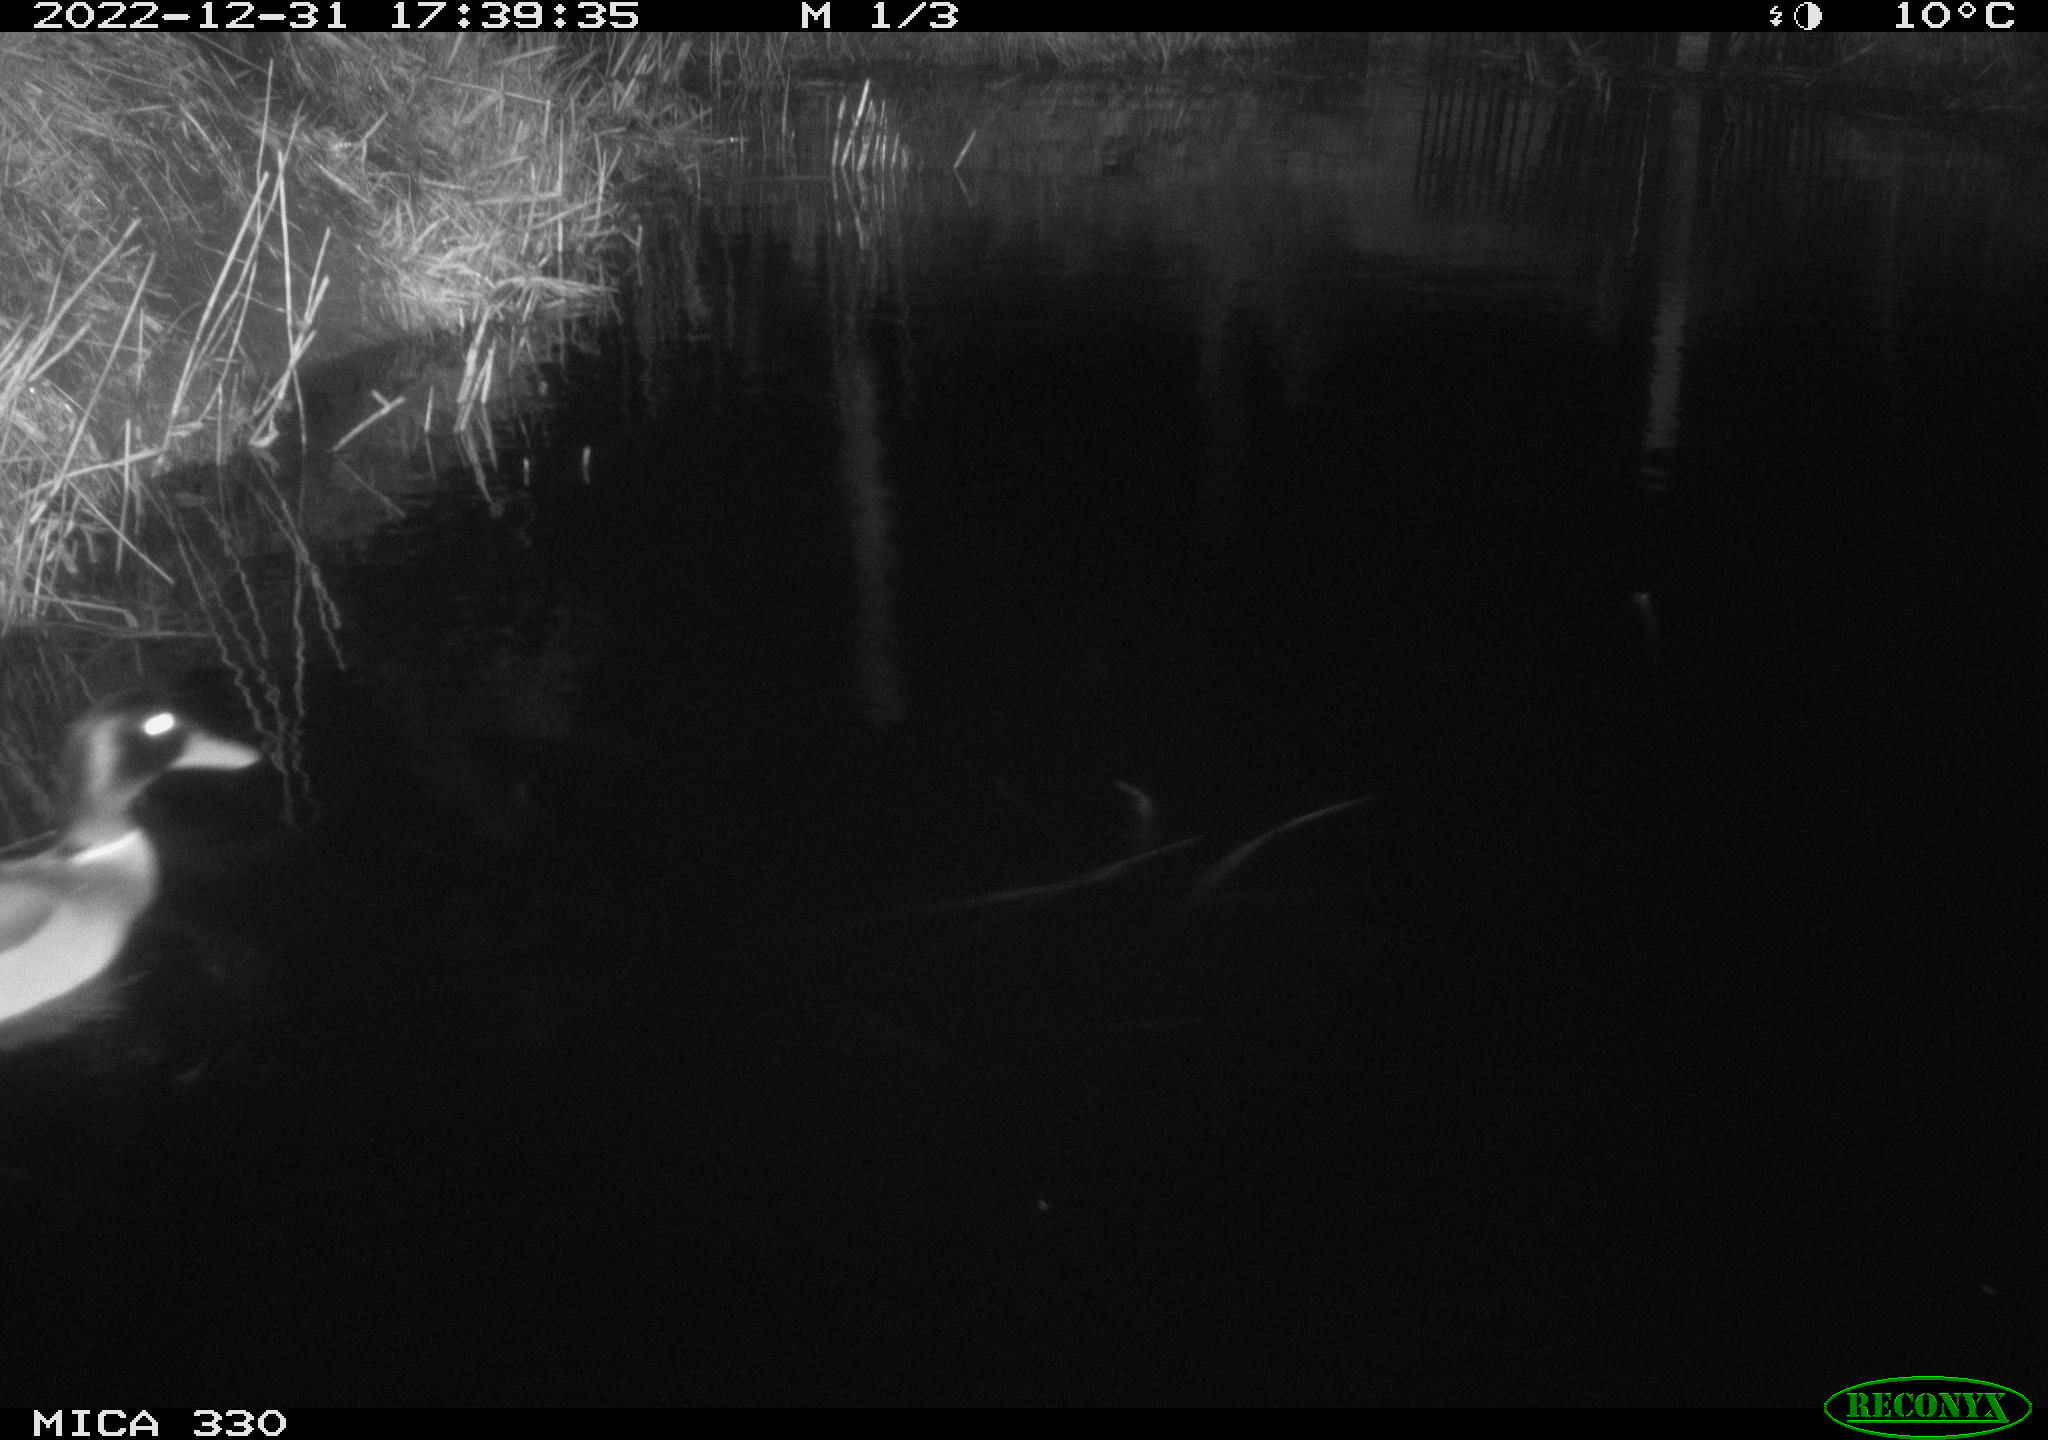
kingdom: Animalia
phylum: Chordata
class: Aves
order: Anseriformes
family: Anatidae
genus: Anas
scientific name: Anas
